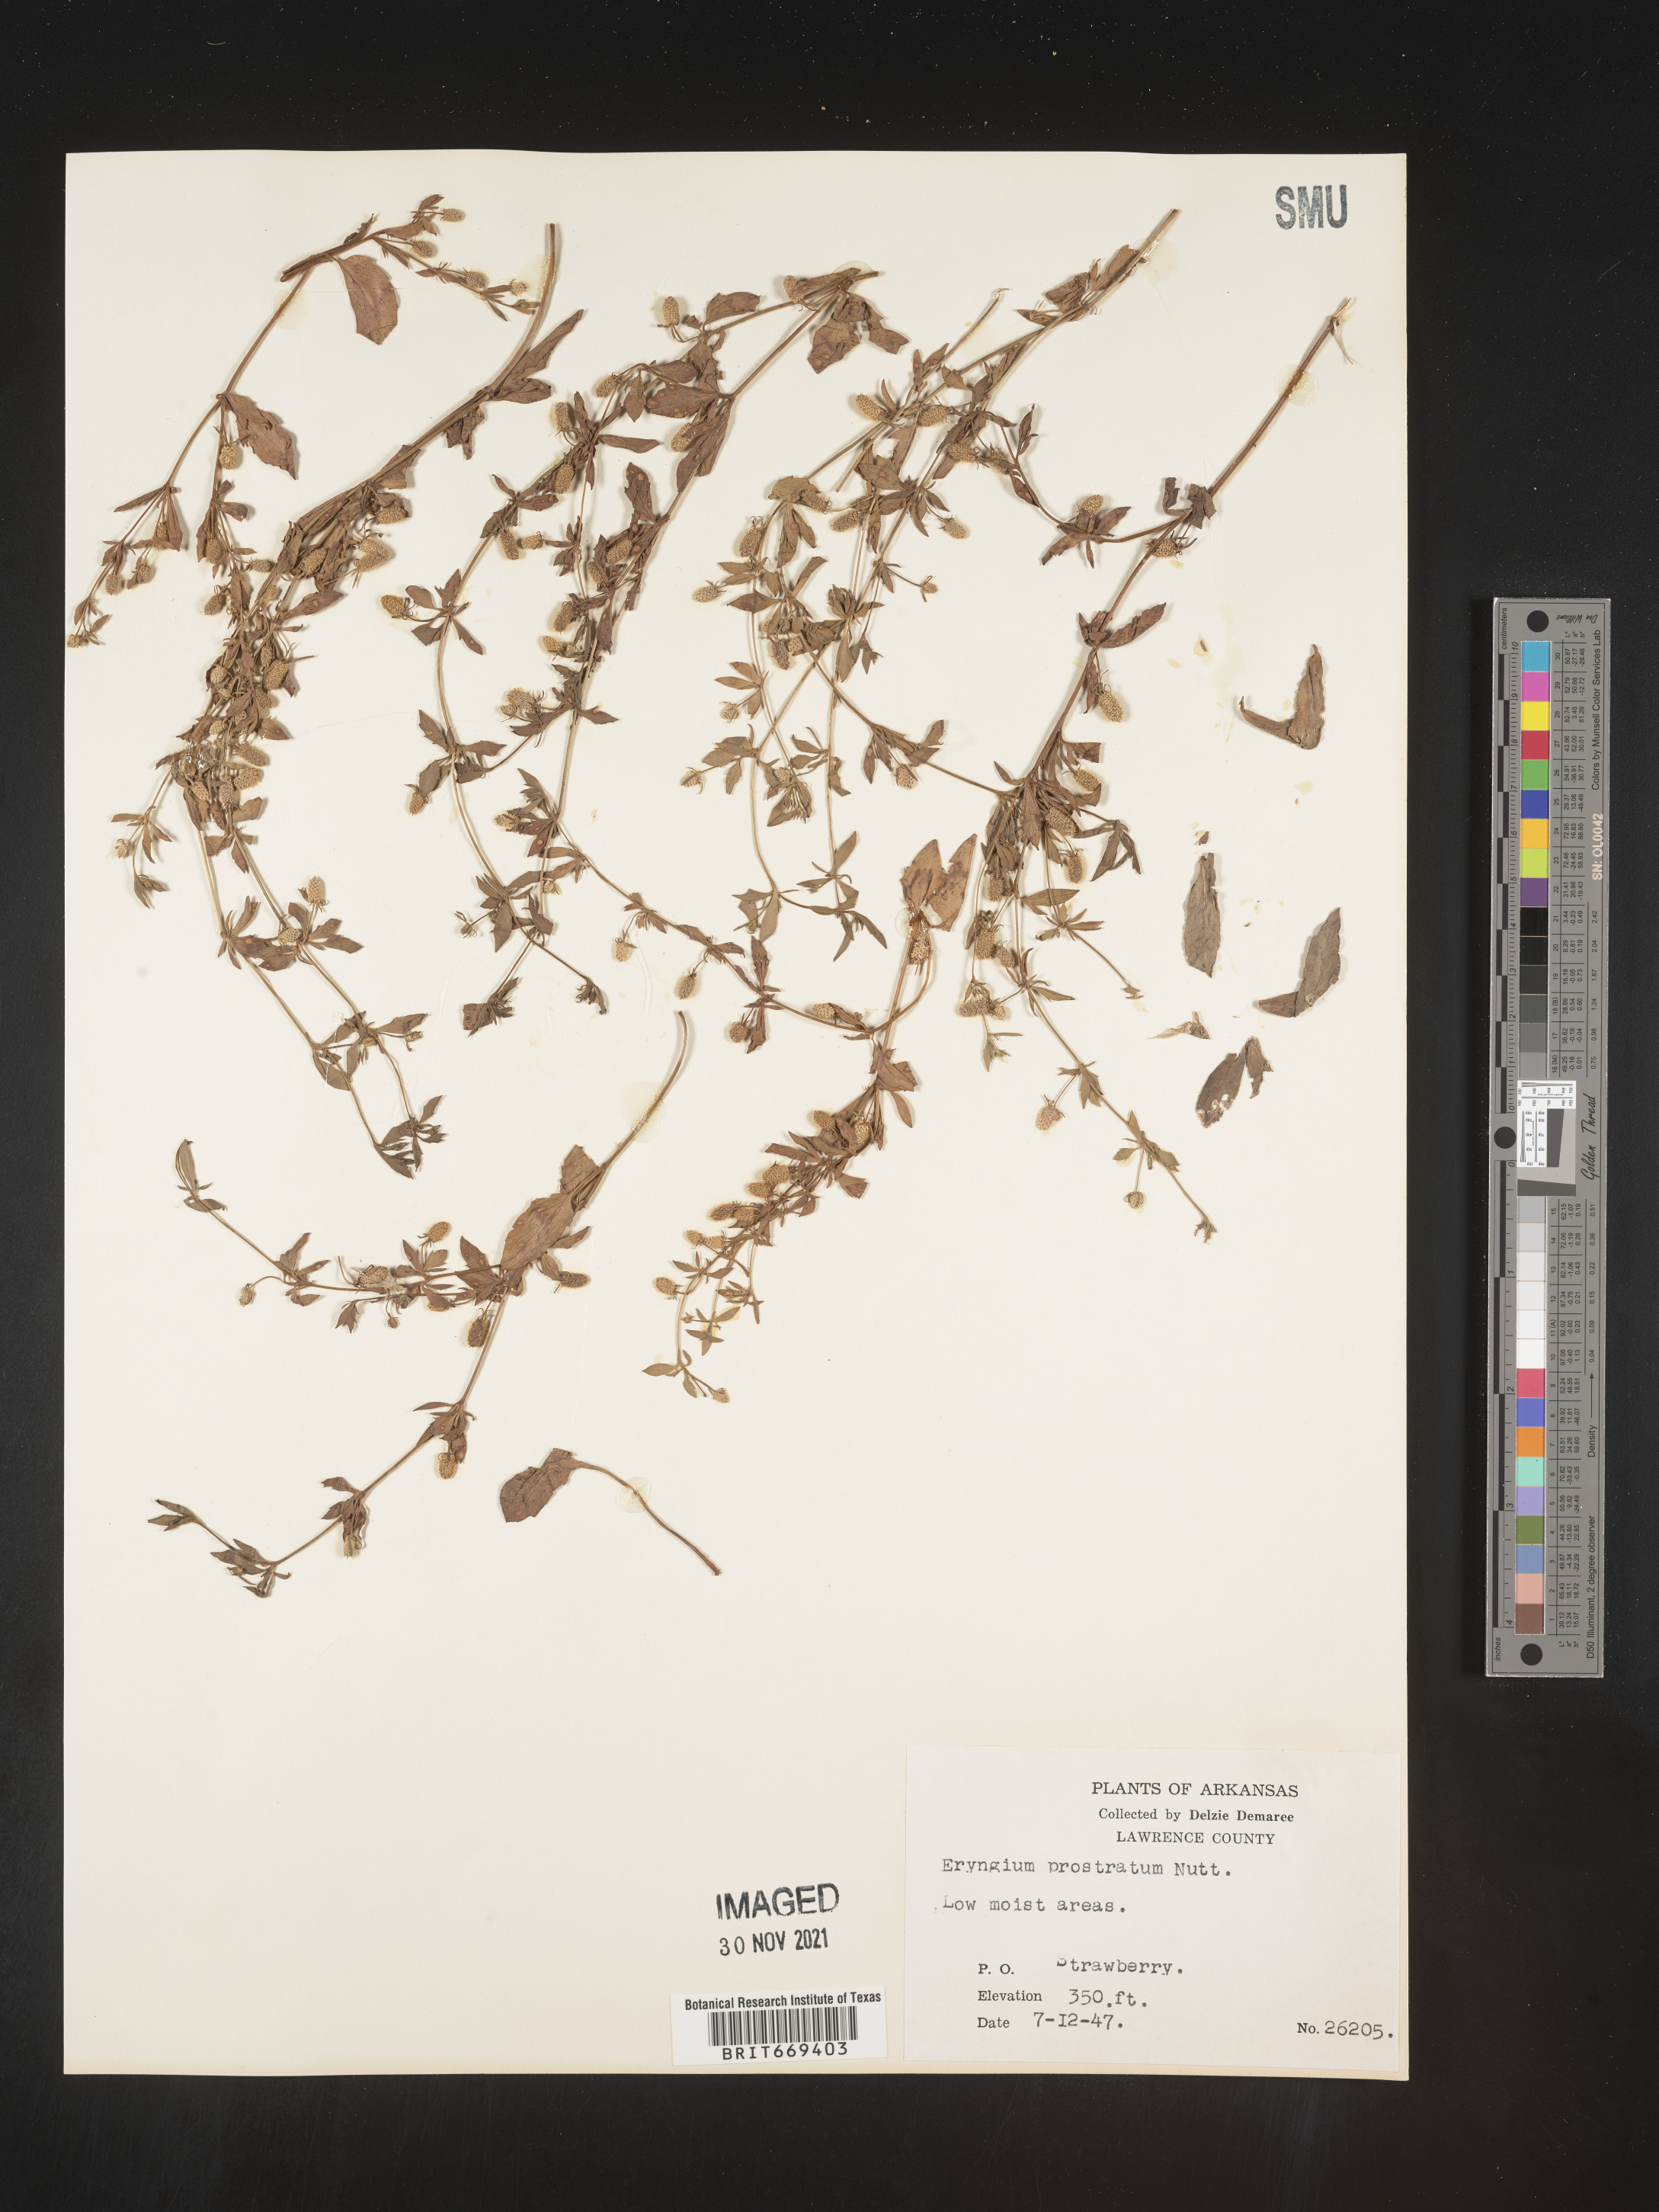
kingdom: Plantae
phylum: Tracheophyta
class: Magnoliopsida
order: Apiales
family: Apiaceae
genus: Eryngium
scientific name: Eryngium prostratum
